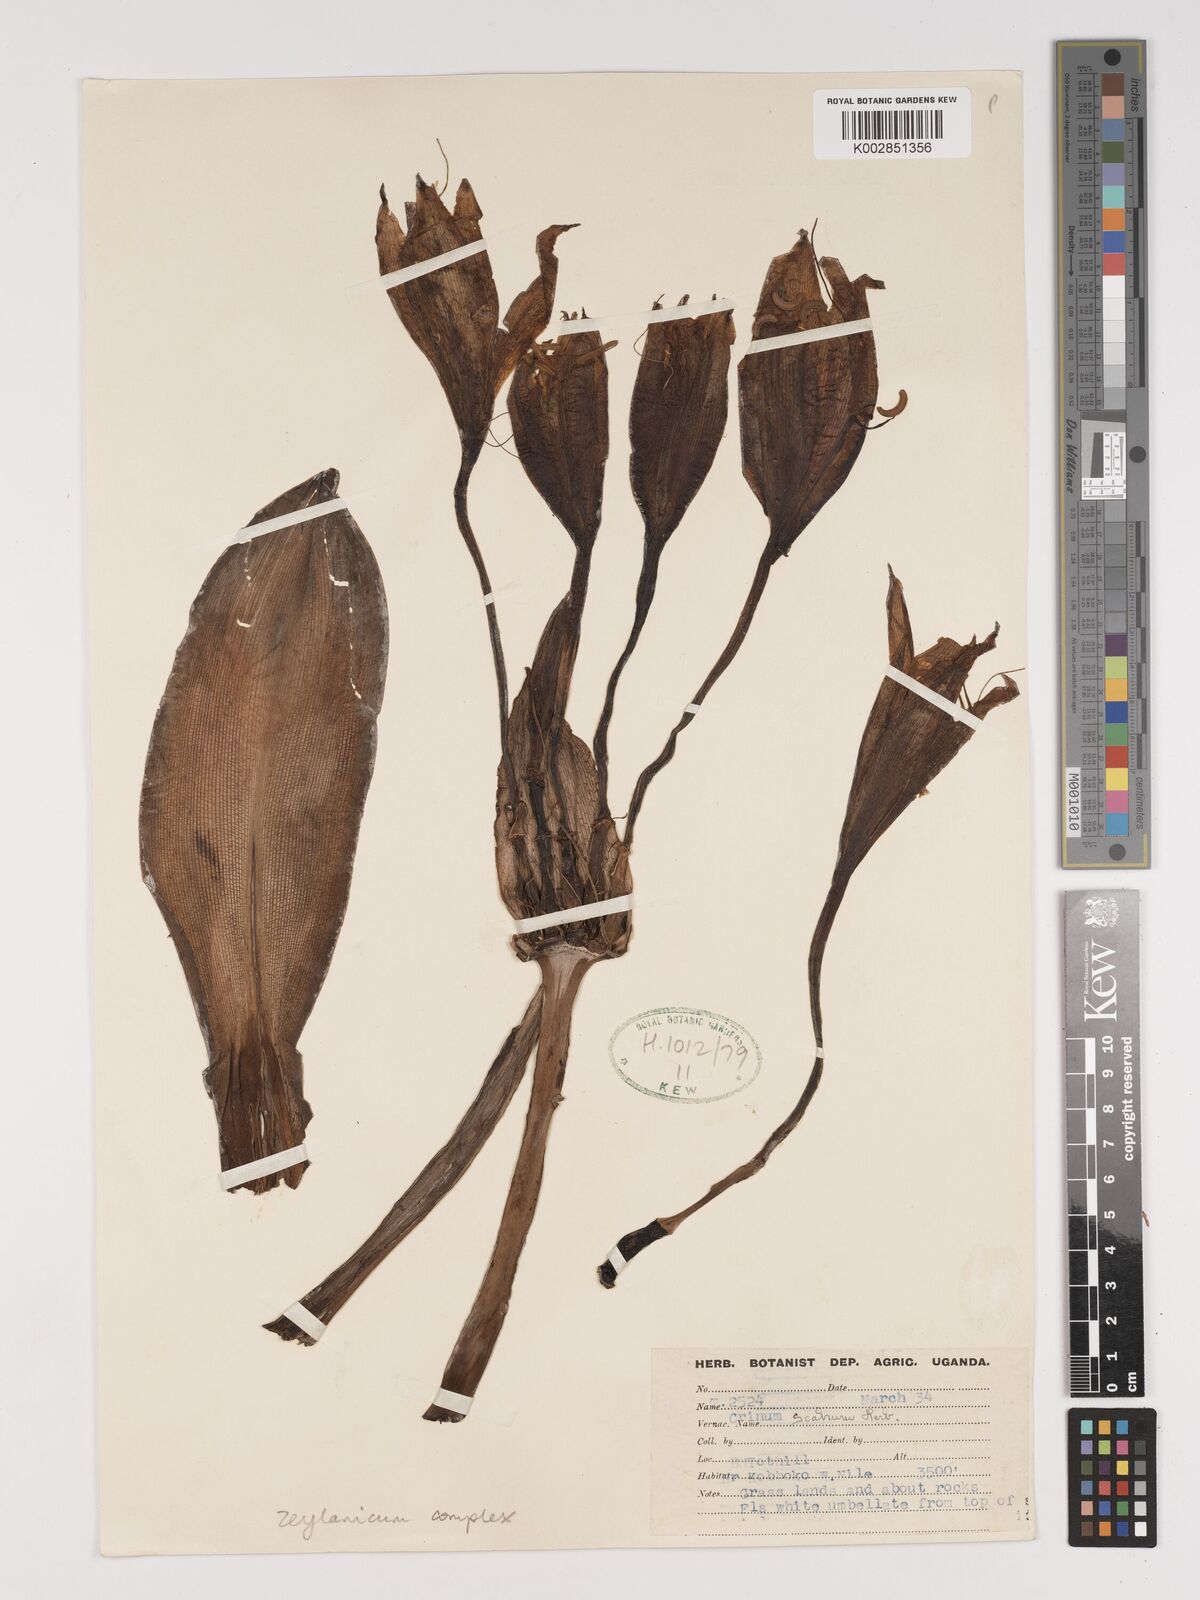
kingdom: Plantae
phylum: Tracheophyta
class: Liliopsida
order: Asparagales
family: Amaryllidaceae
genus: Crinum
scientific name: Crinum zeylanicum
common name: Ceylon swamplily
